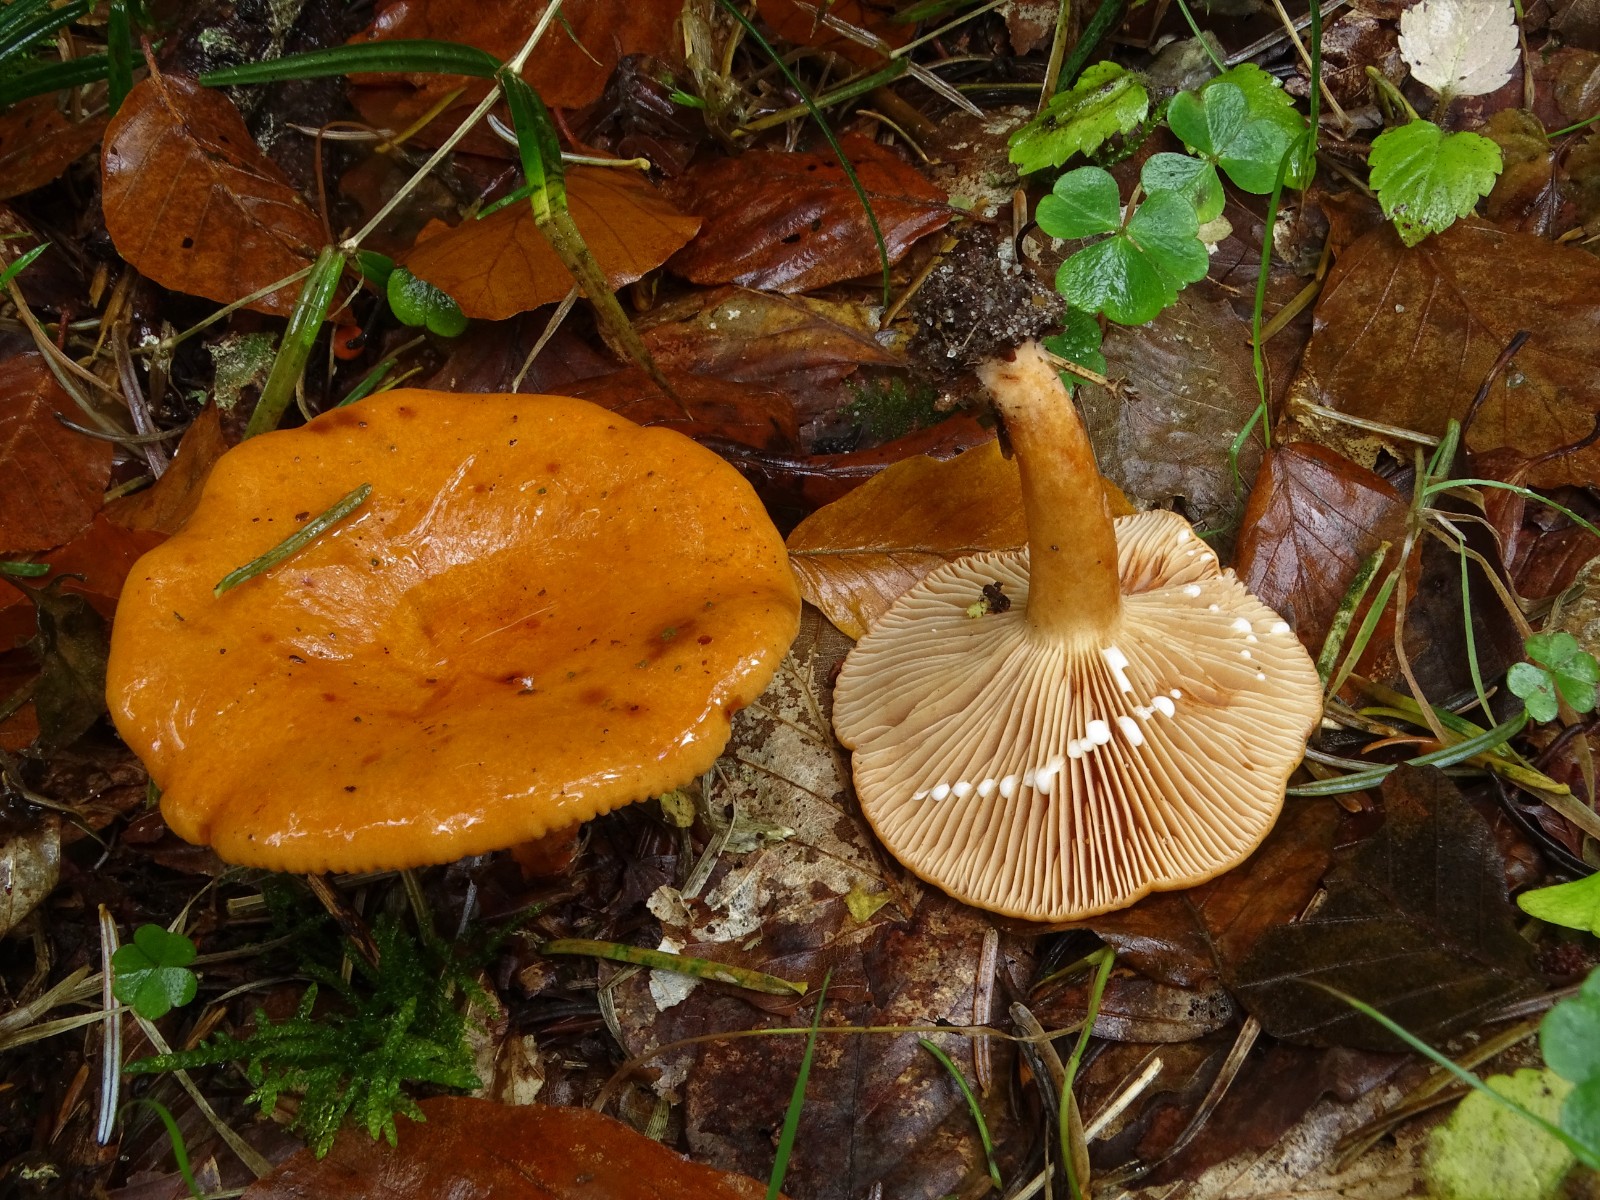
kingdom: Fungi
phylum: Basidiomycota
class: Agaricomycetes
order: Russulales
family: Russulaceae
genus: Lactarius
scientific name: Lactarius aurantiacus
